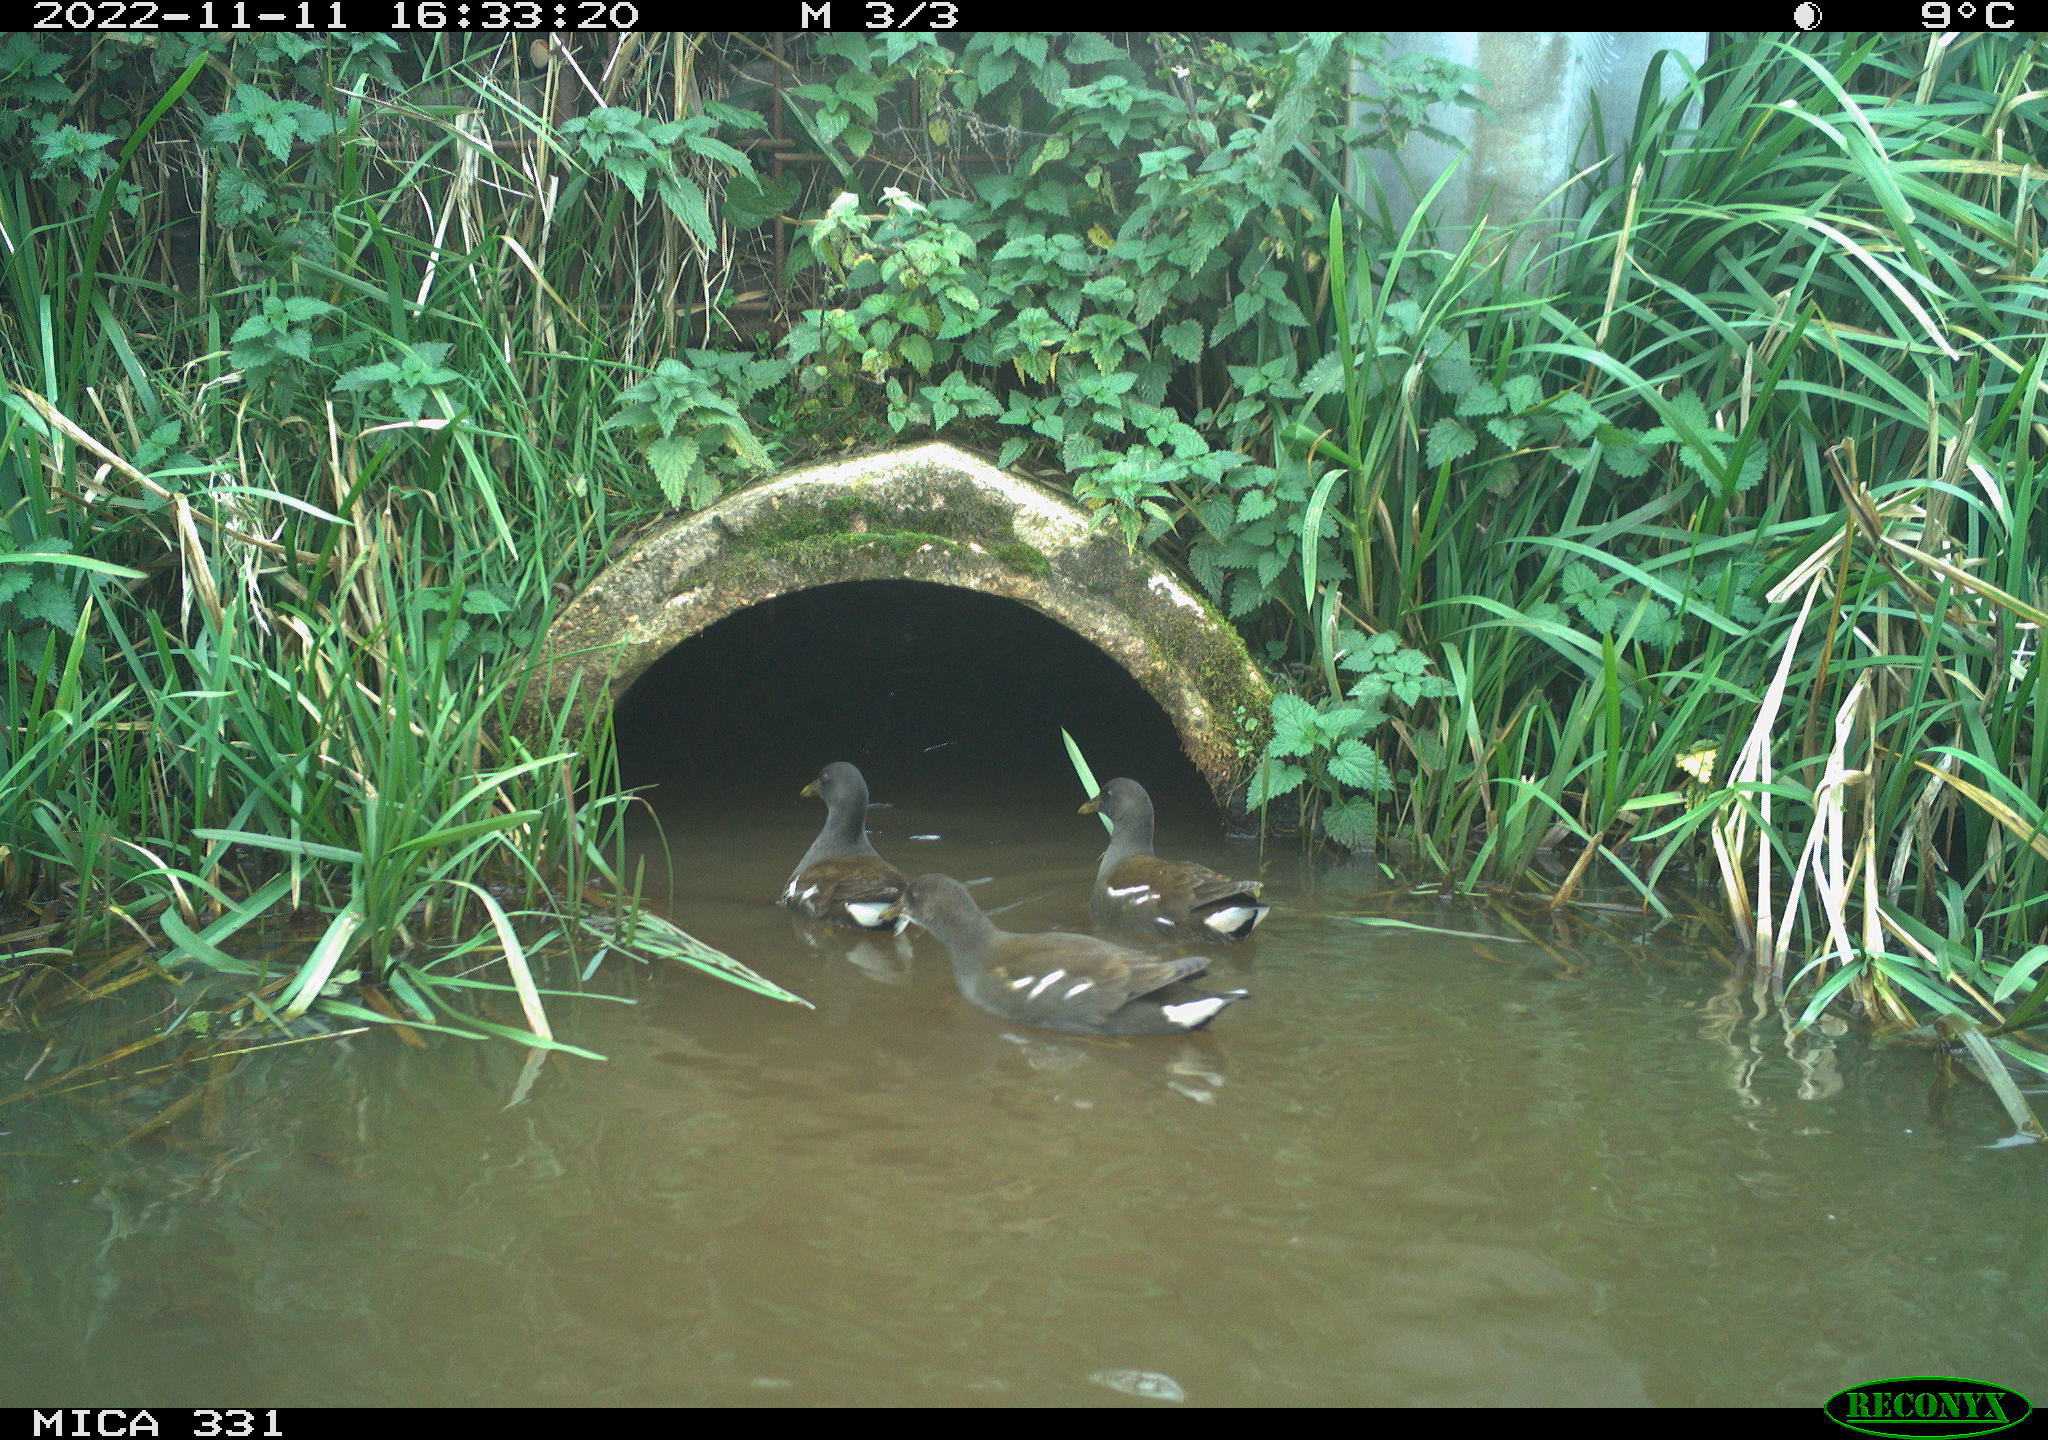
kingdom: Animalia
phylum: Chordata
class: Aves
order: Gruiformes
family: Rallidae
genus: Gallinula
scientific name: Gallinula chloropus
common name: Common moorhen
